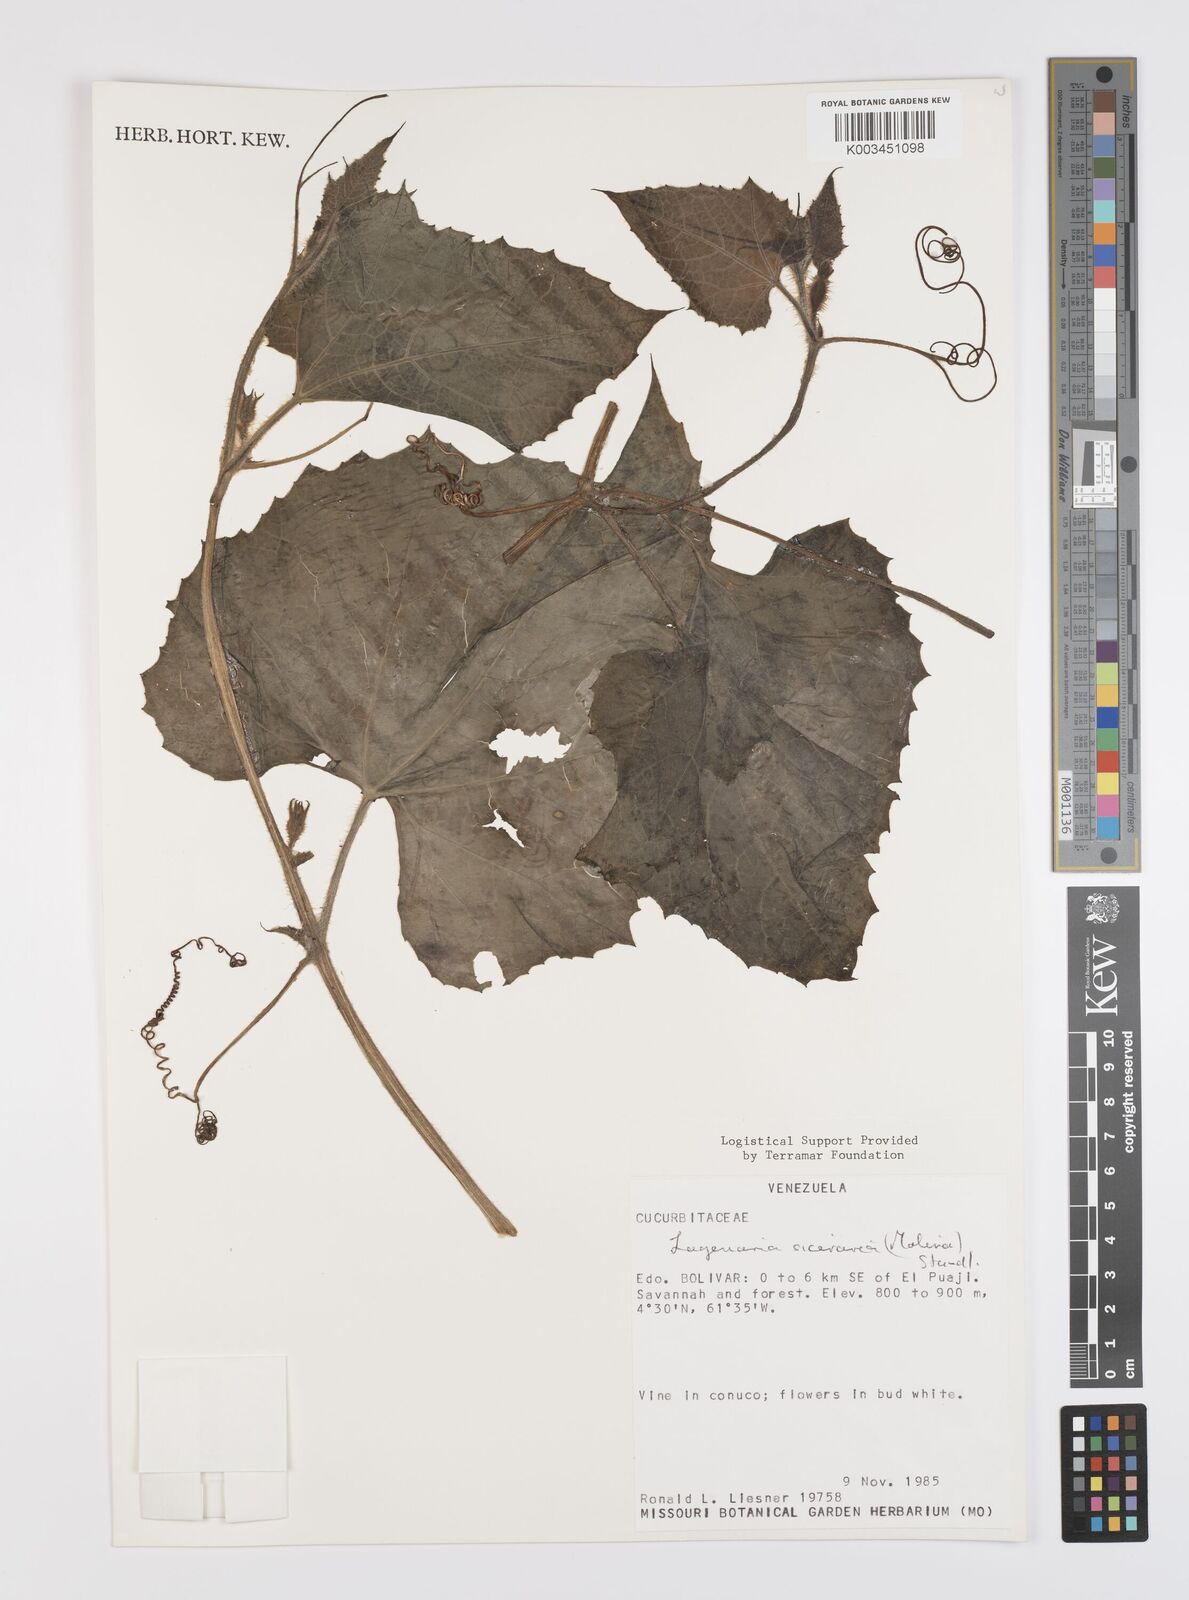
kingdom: Plantae
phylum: Tracheophyta
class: Magnoliopsida
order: Cucurbitales
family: Cucurbitaceae
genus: Lagenaria
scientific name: Lagenaria siceraria
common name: Bottle gourd
